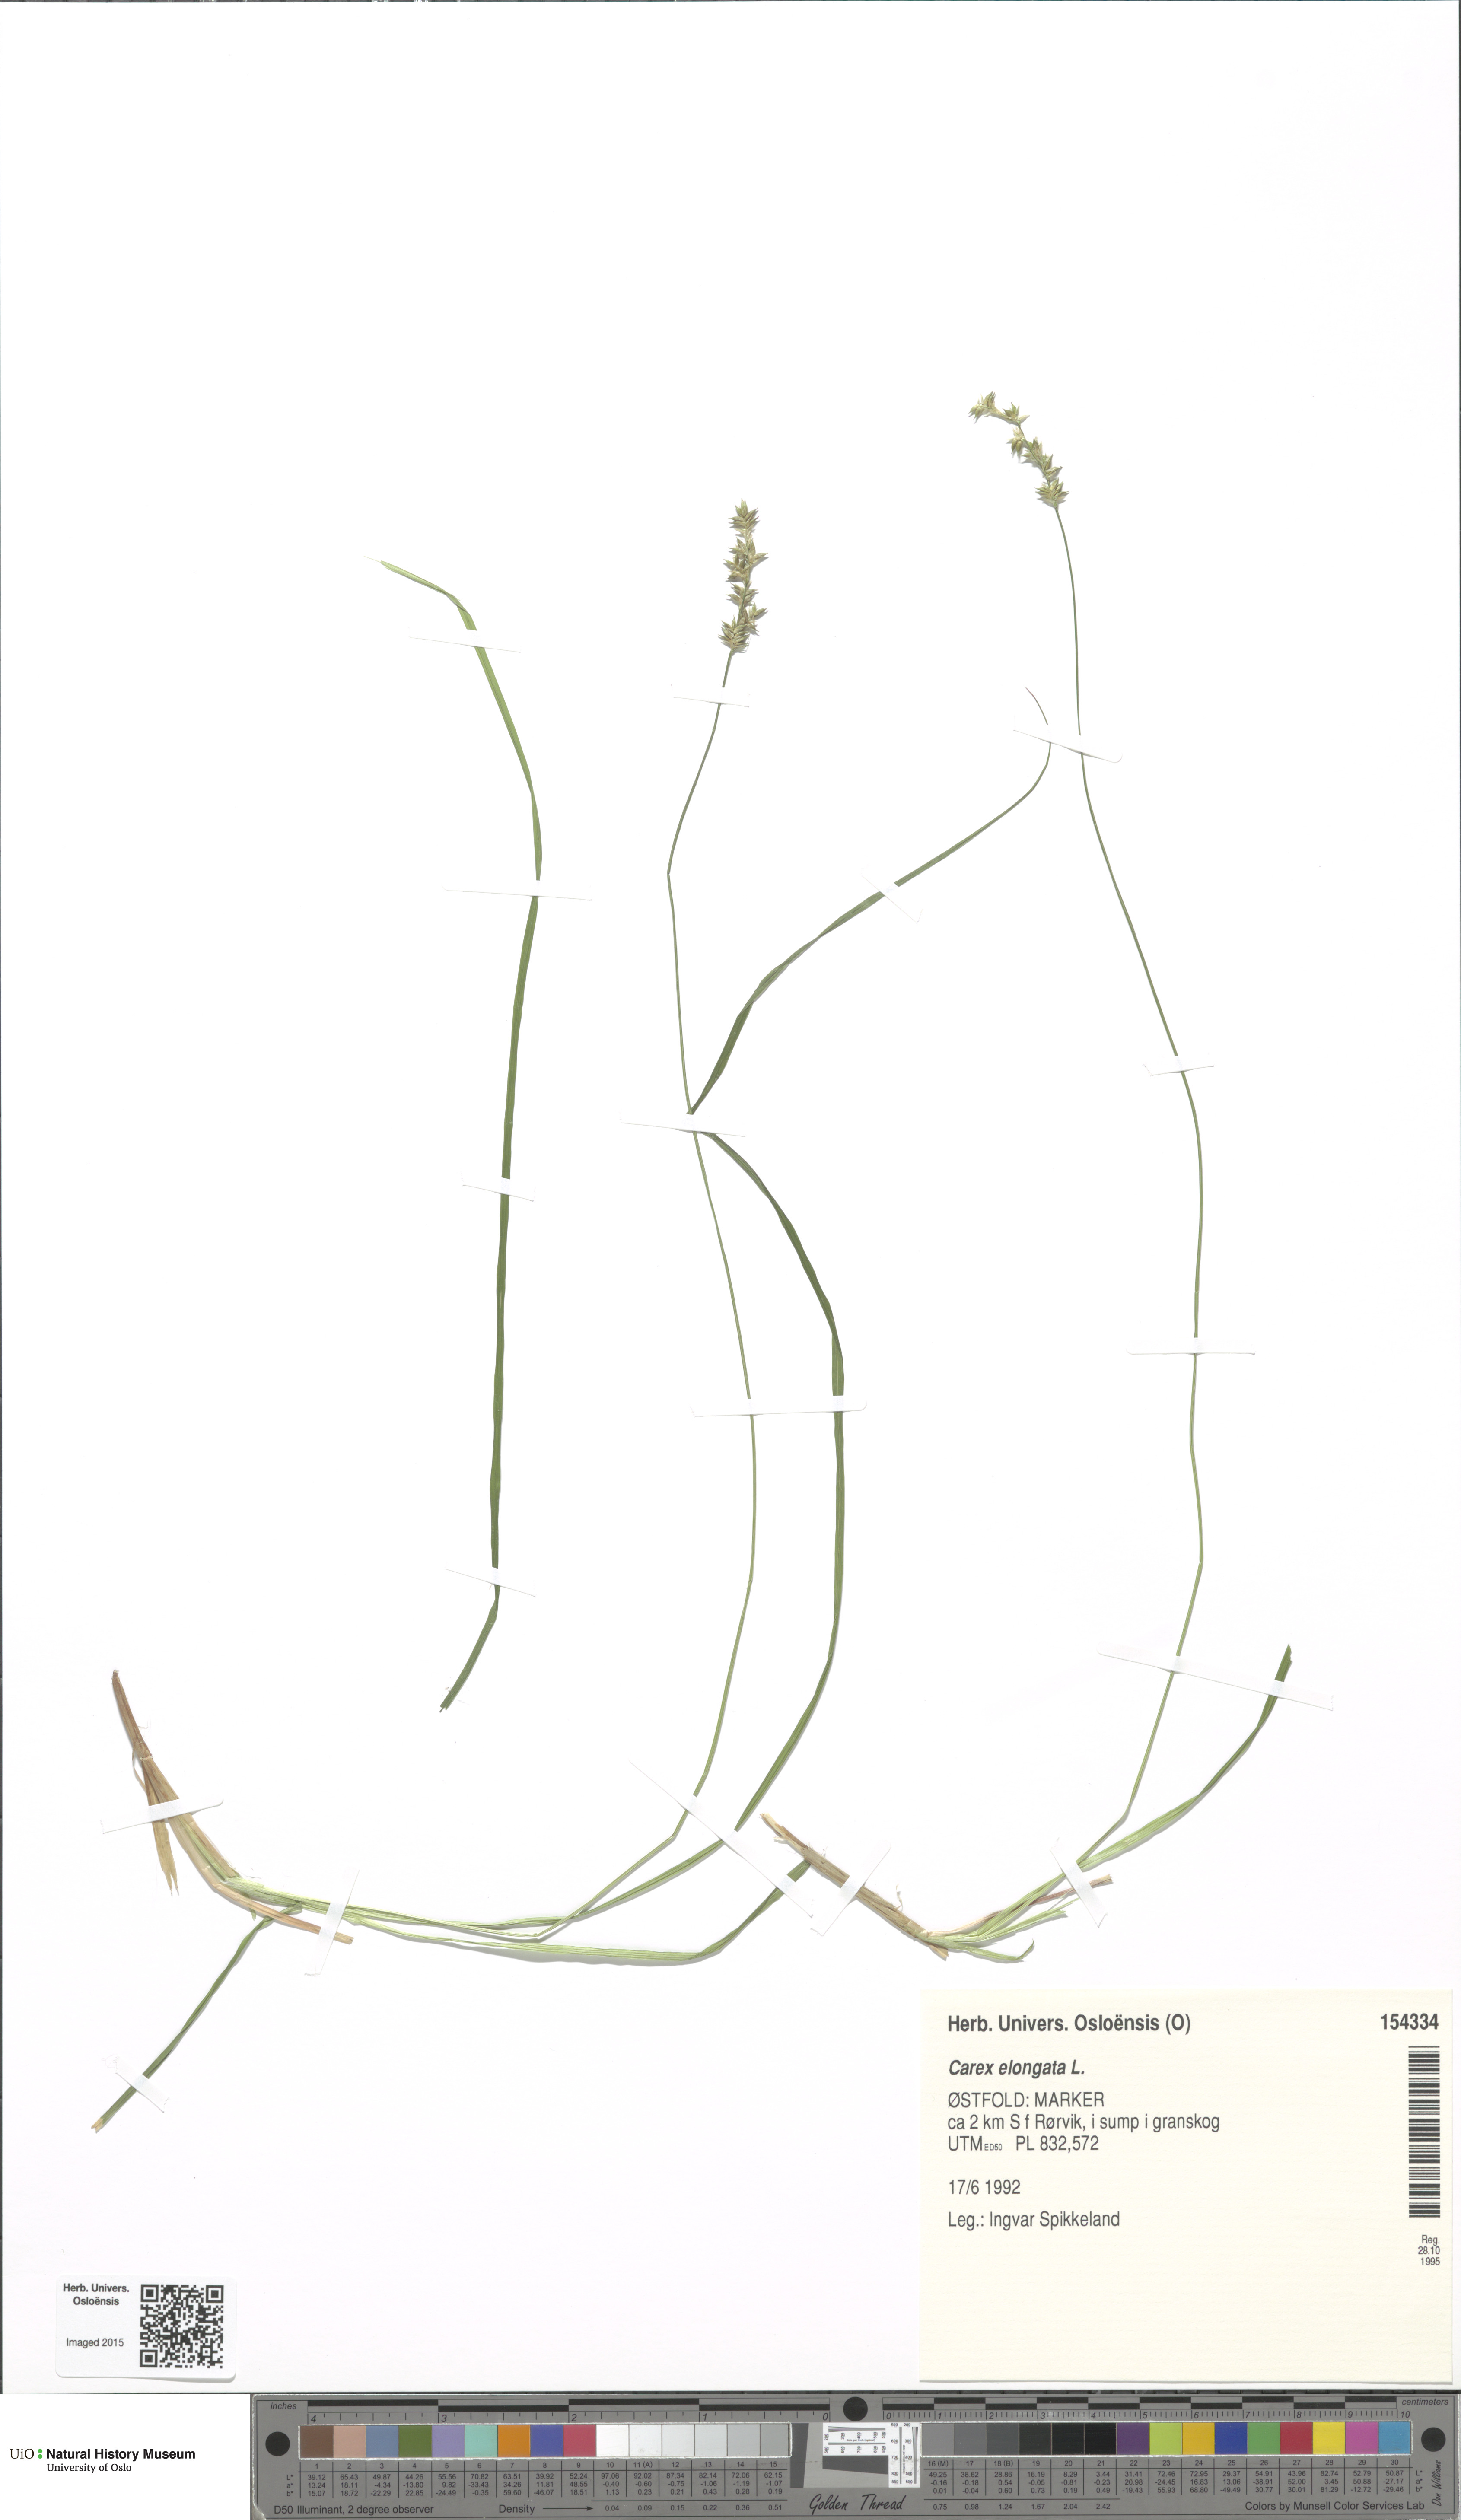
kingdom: Plantae
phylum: Tracheophyta
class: Liliopsida
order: Poales
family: Cyperaceae
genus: Carex
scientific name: Carex elongata
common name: Elongated sedge
